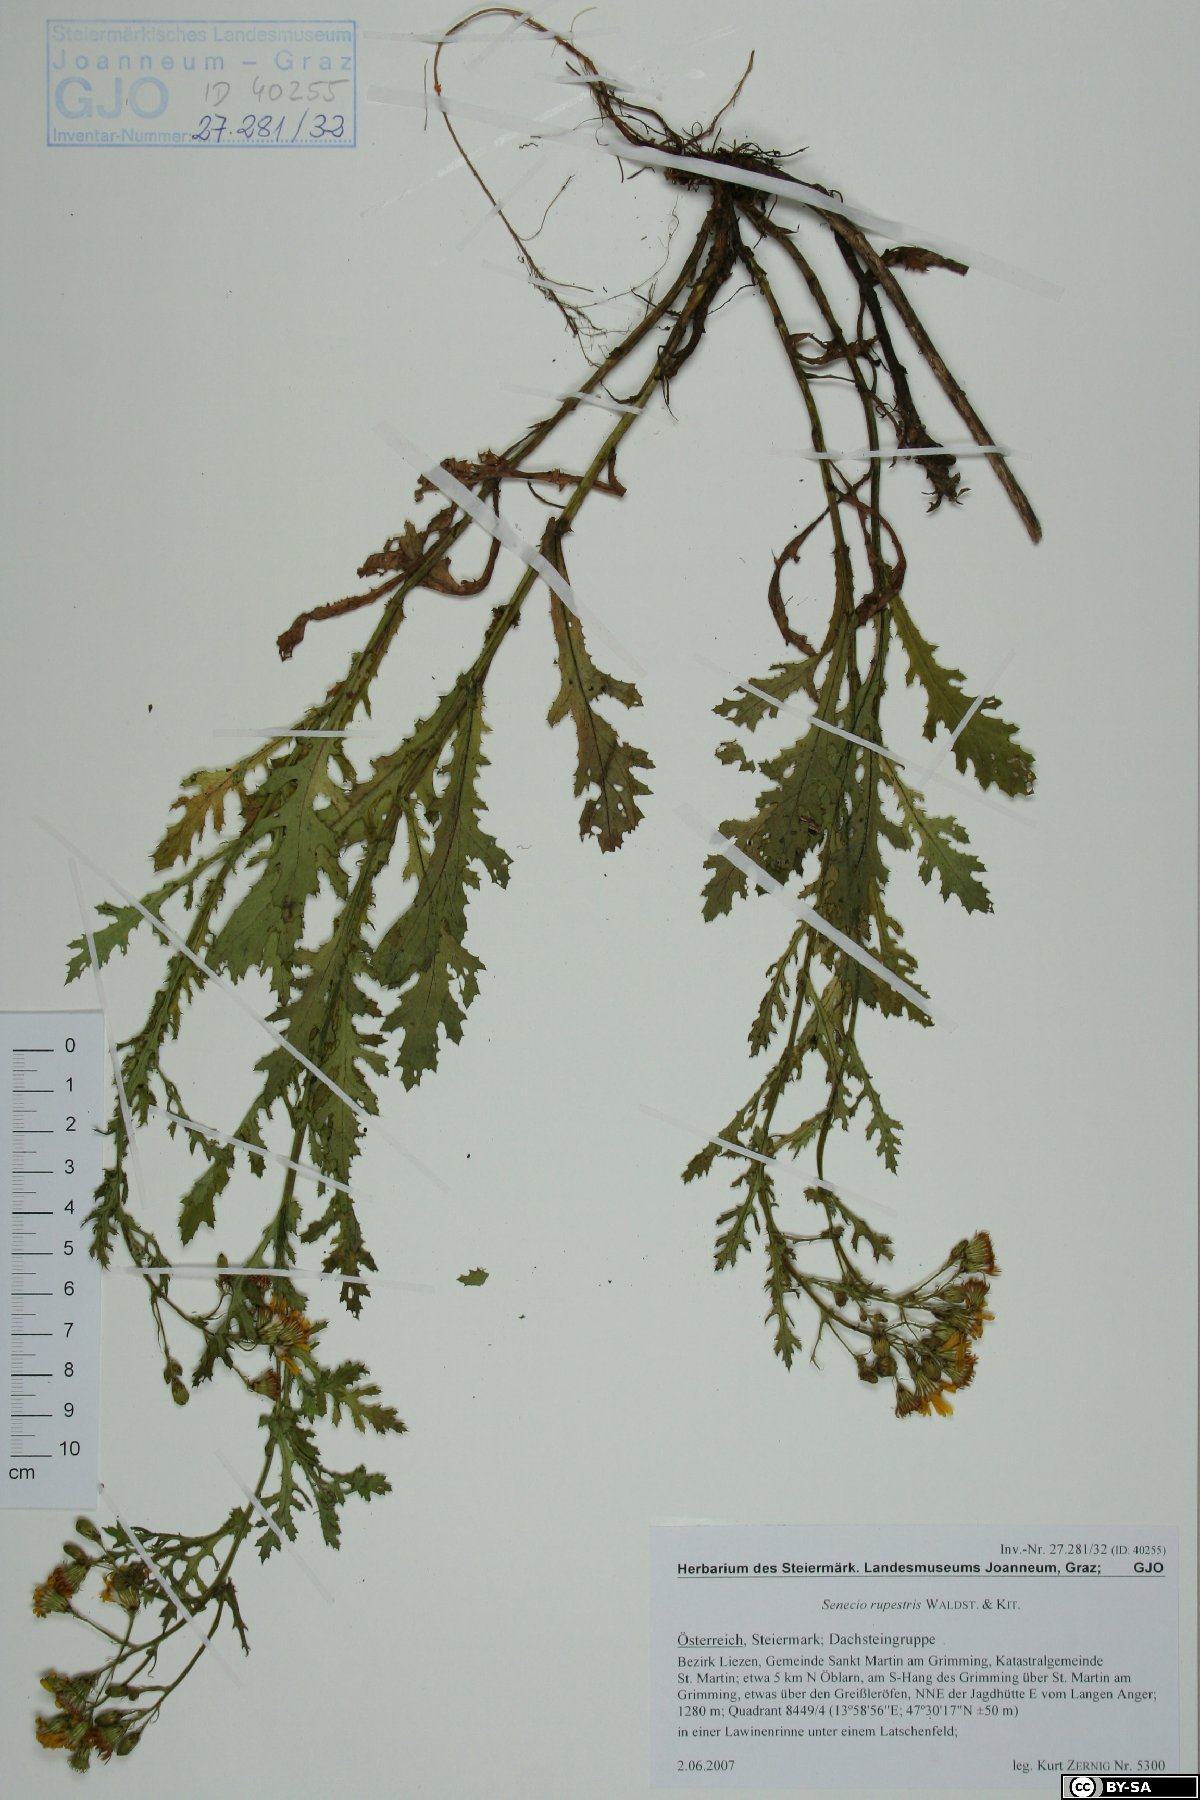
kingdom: Plantae
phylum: Tracheophyta
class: Magnoliopsida
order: Asterales
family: Asteraceae
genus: Senecio
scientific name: Senecio rupestris
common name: Rock ragwort
